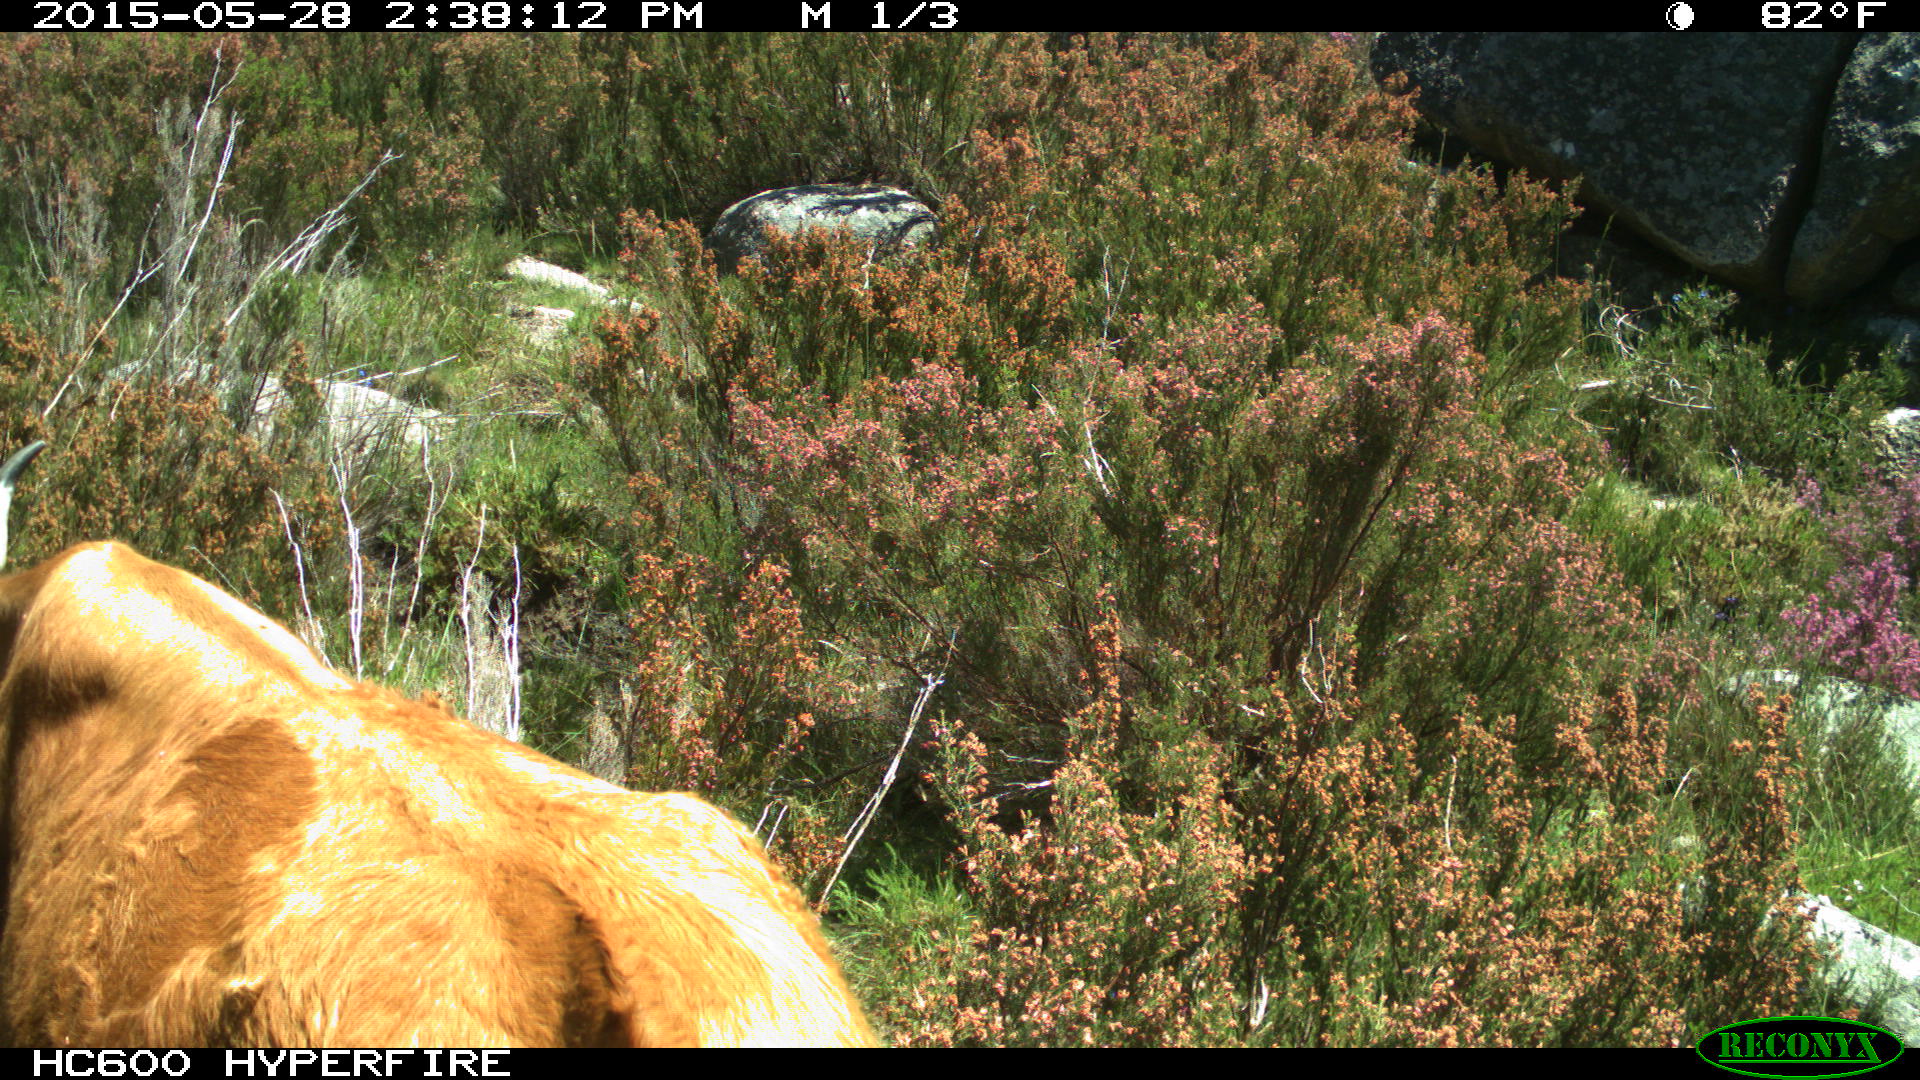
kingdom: Animalia
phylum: Chordata
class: Mammalia
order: Artiodactyla
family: Bovidae
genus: Bos
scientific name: Bos taurus
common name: Domesticated cattle
